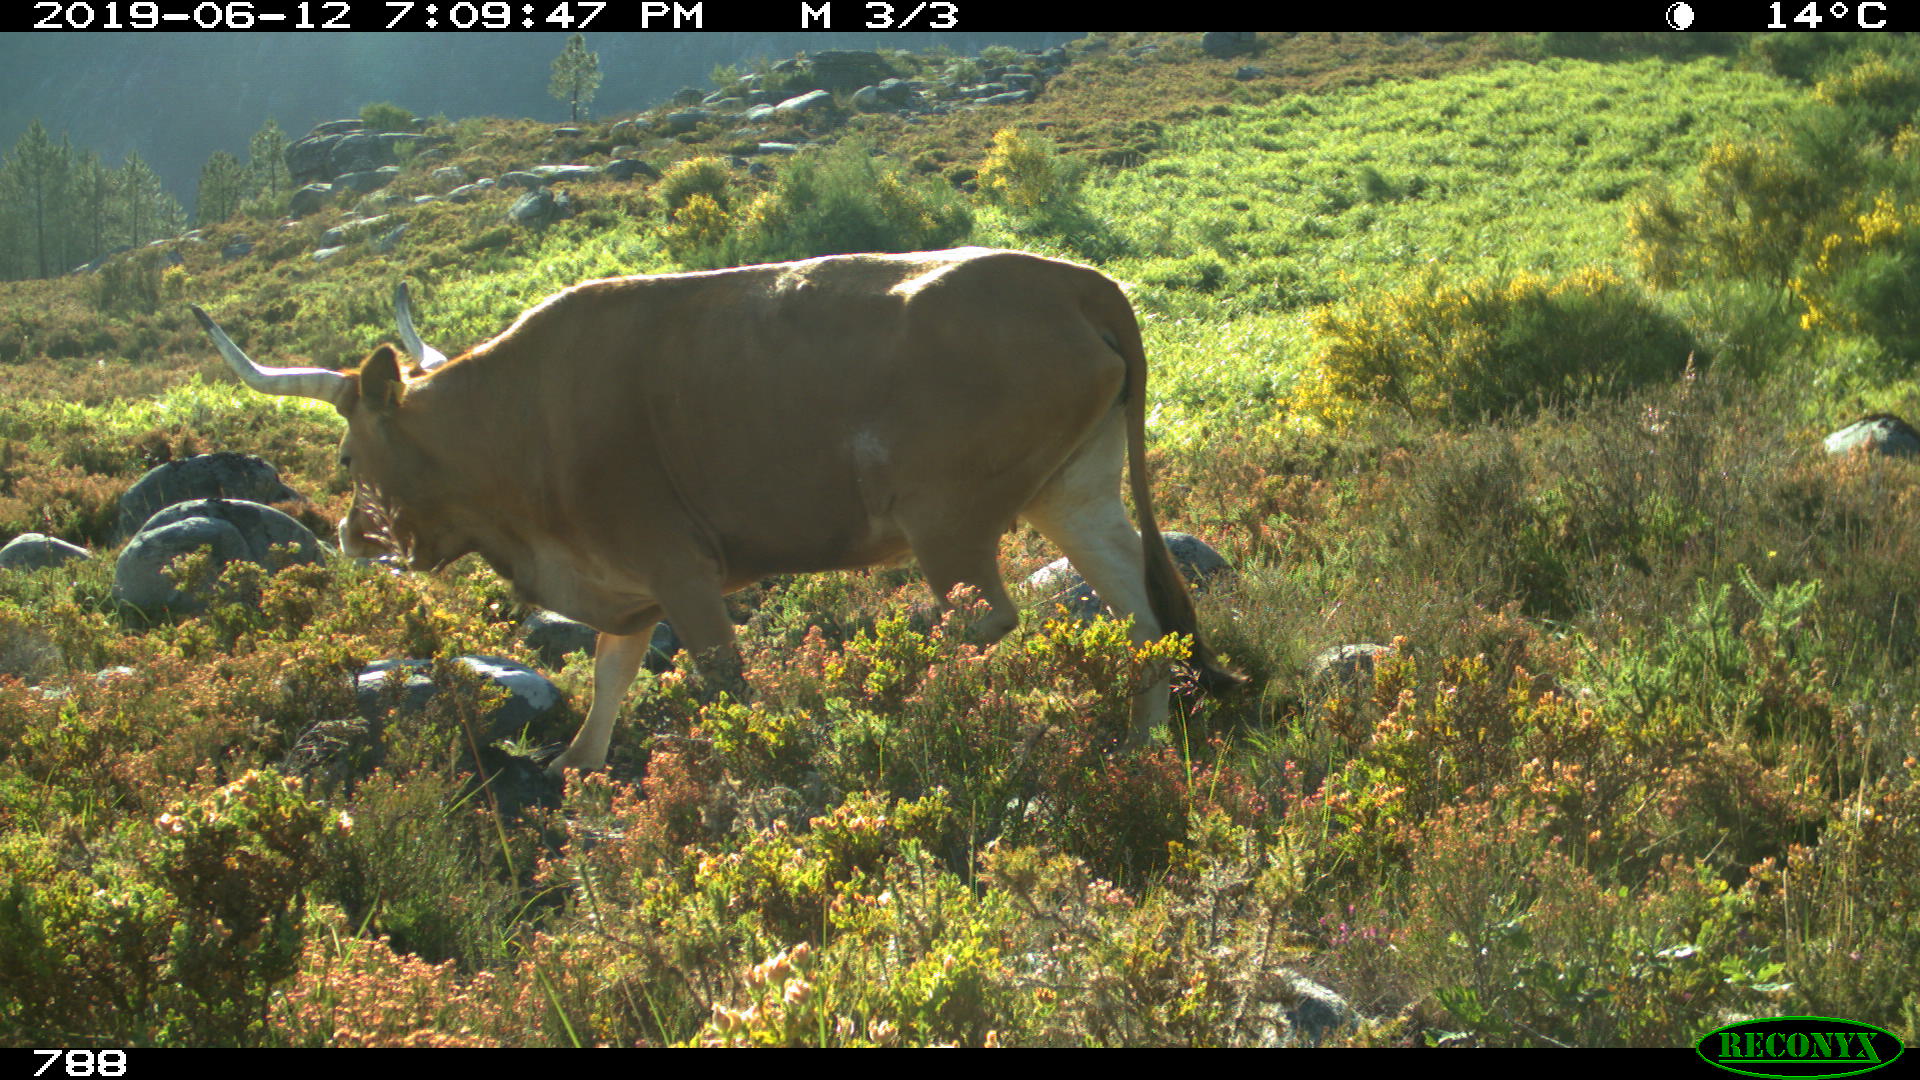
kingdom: Animalia
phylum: Chordata
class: Mammalia
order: Artiodactyla
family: Bovidae
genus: Bos
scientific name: Bos taurus
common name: Domesticated cattle
